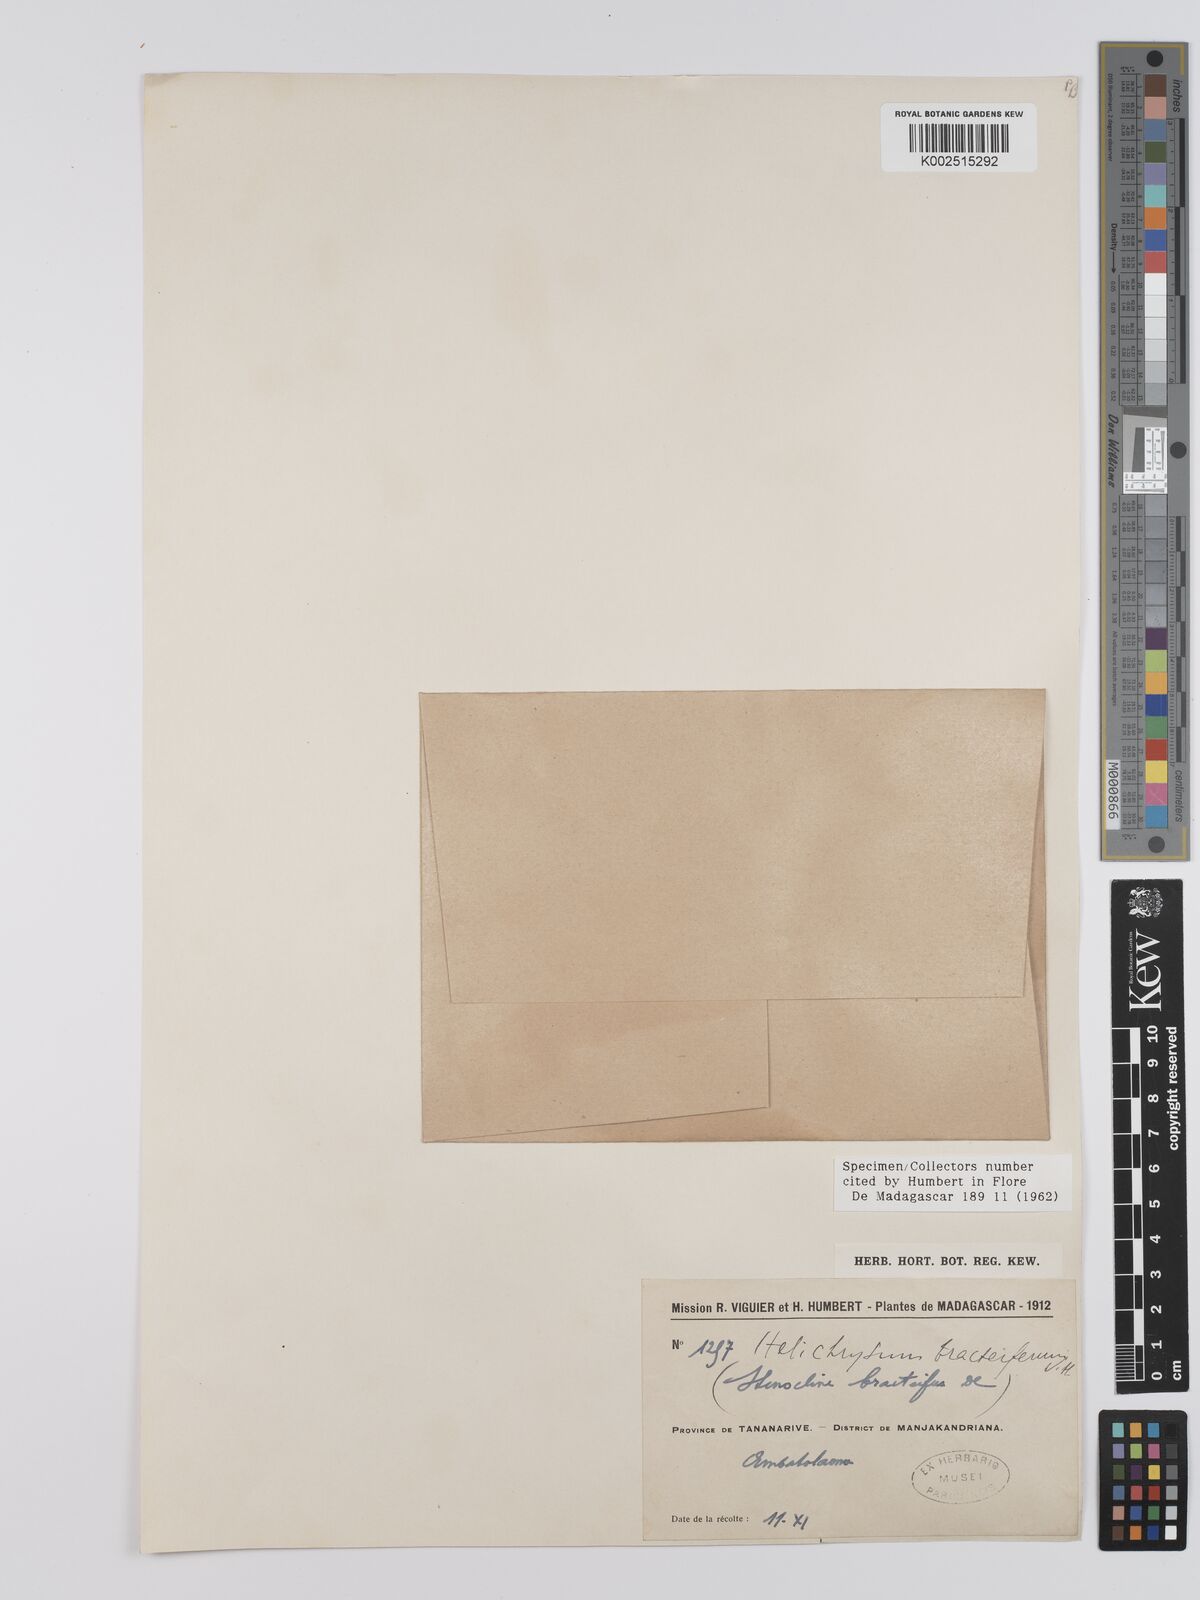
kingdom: Plantae
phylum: Tracheophyta
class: Magnoliopsida
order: Asterales
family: Asteraceae
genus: Helichrysum
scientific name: Helichrysum bracteiferum
